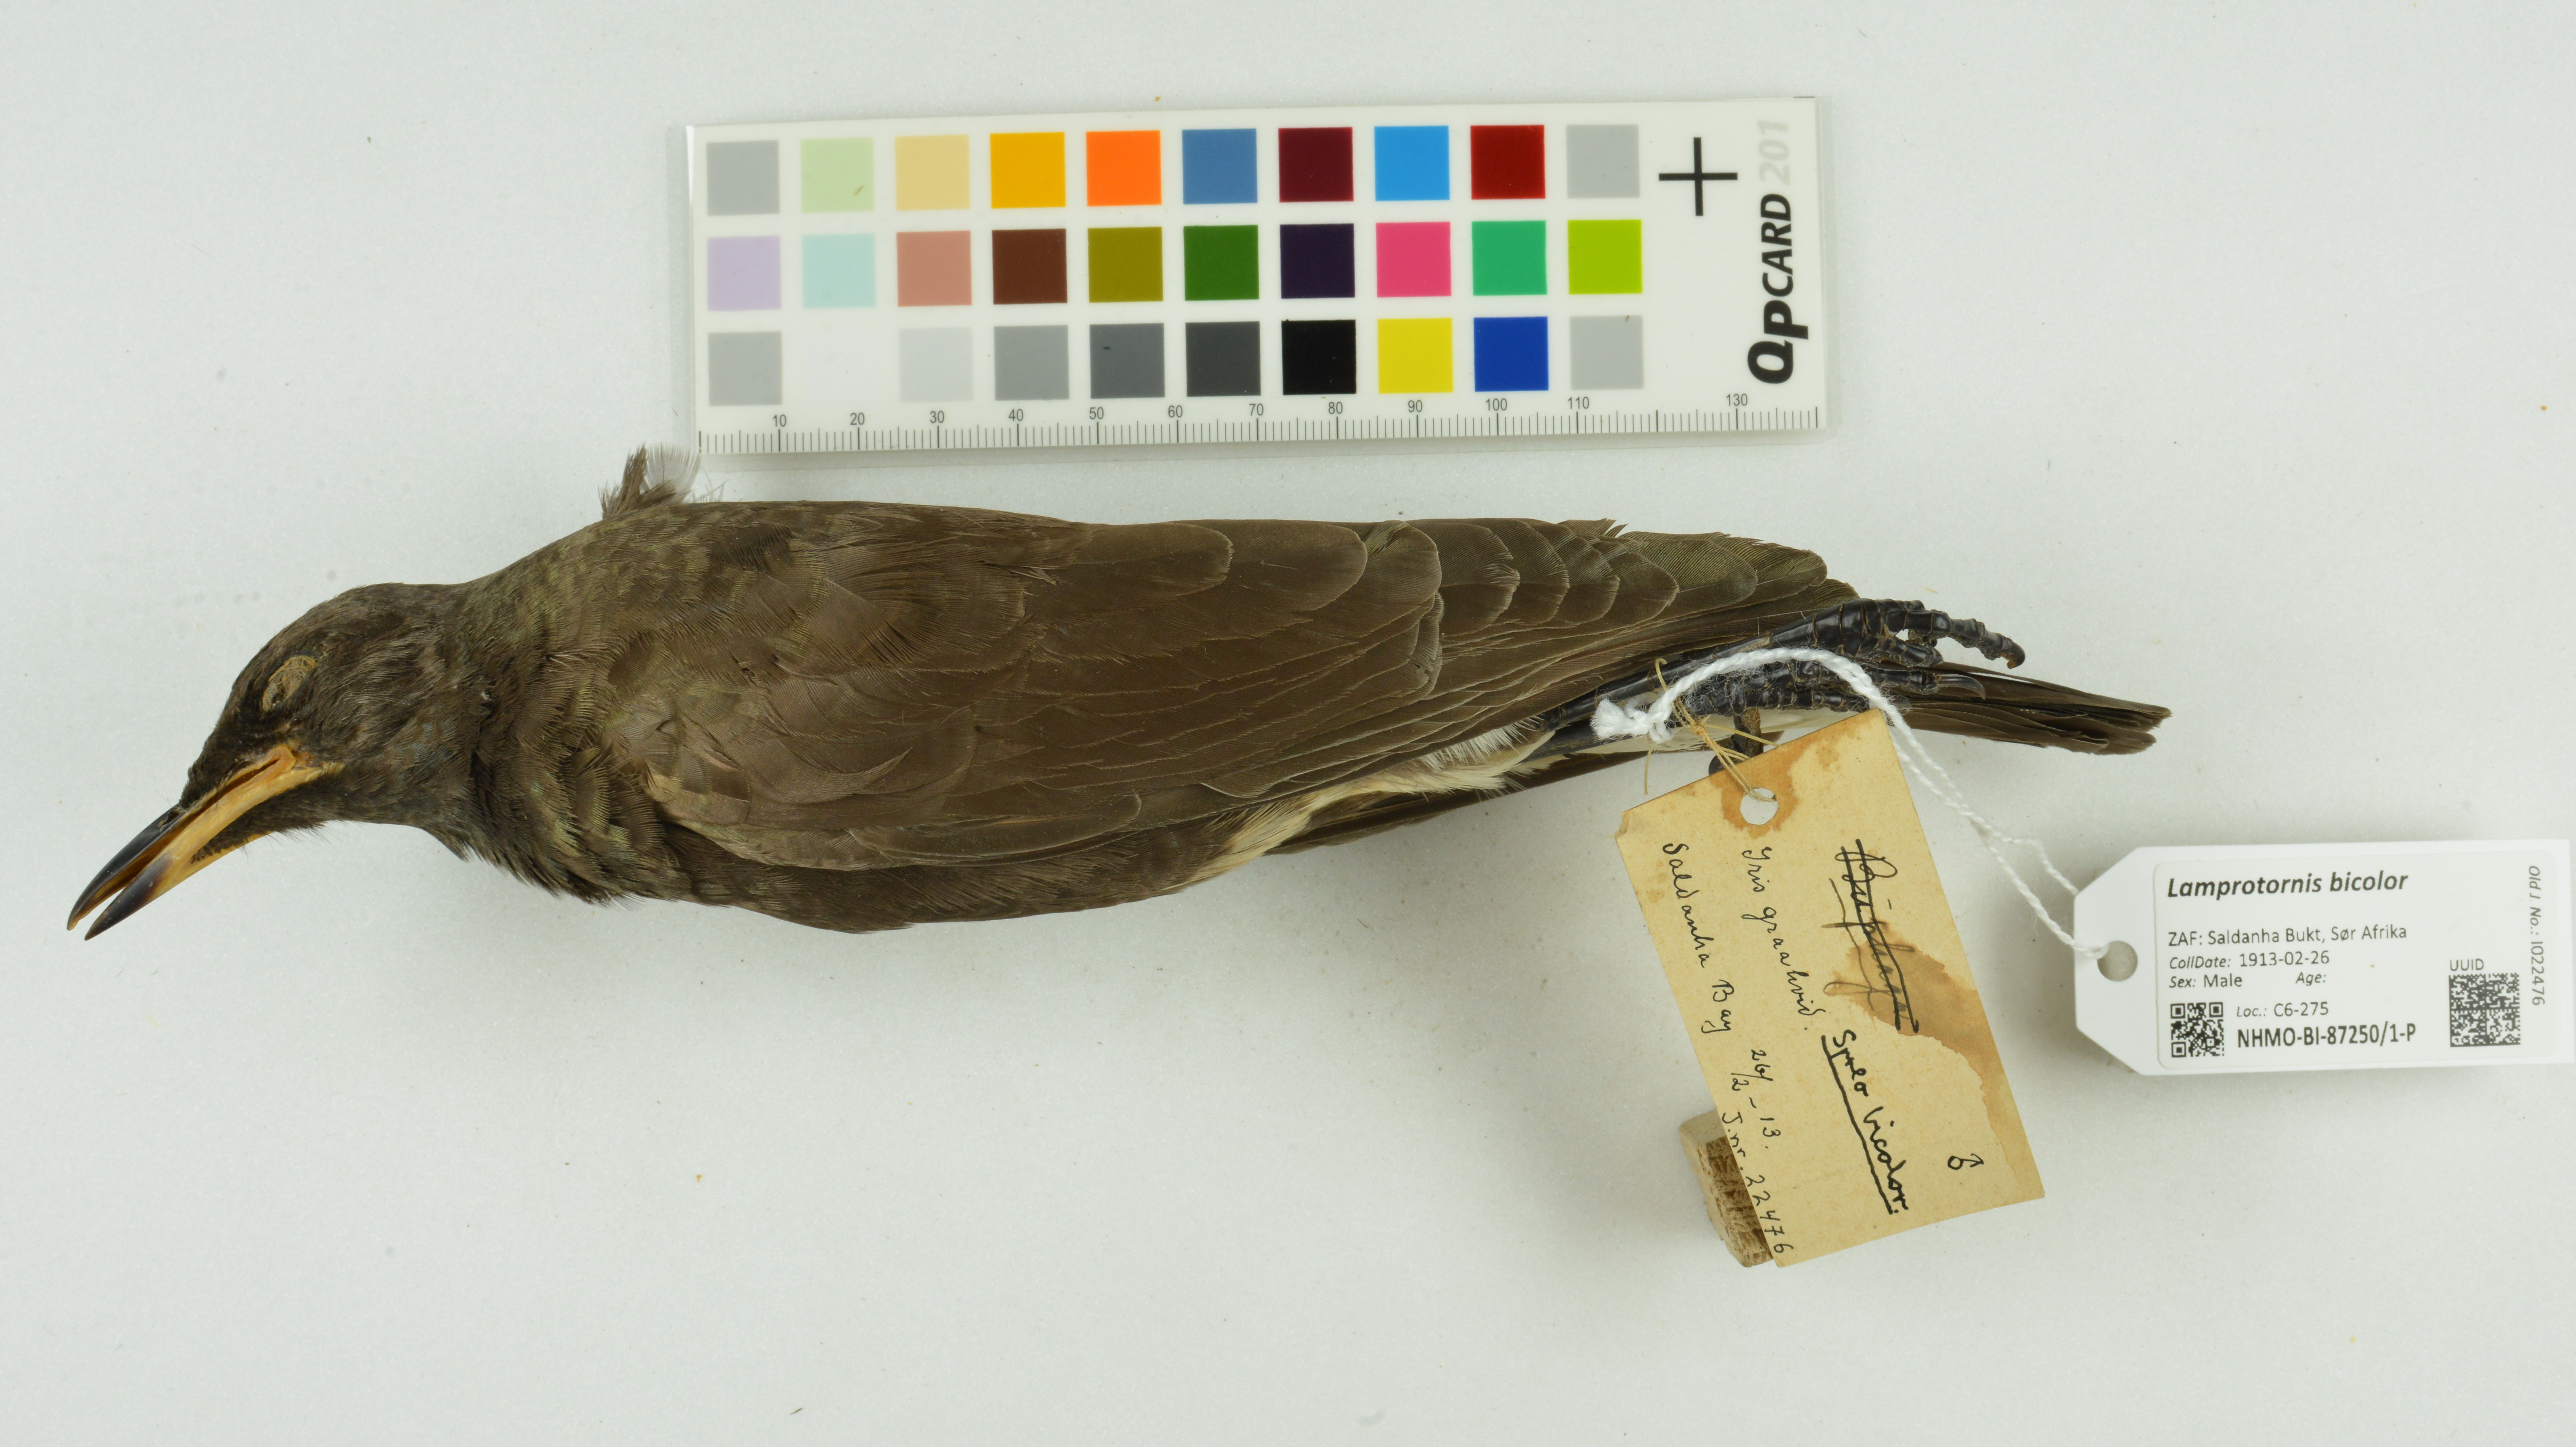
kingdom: Animalia
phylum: Chordata
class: Aves
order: Passeriformes
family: Sturnidae
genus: Lamprotornis
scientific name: Lamprotornis bicolor
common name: Pied starling
